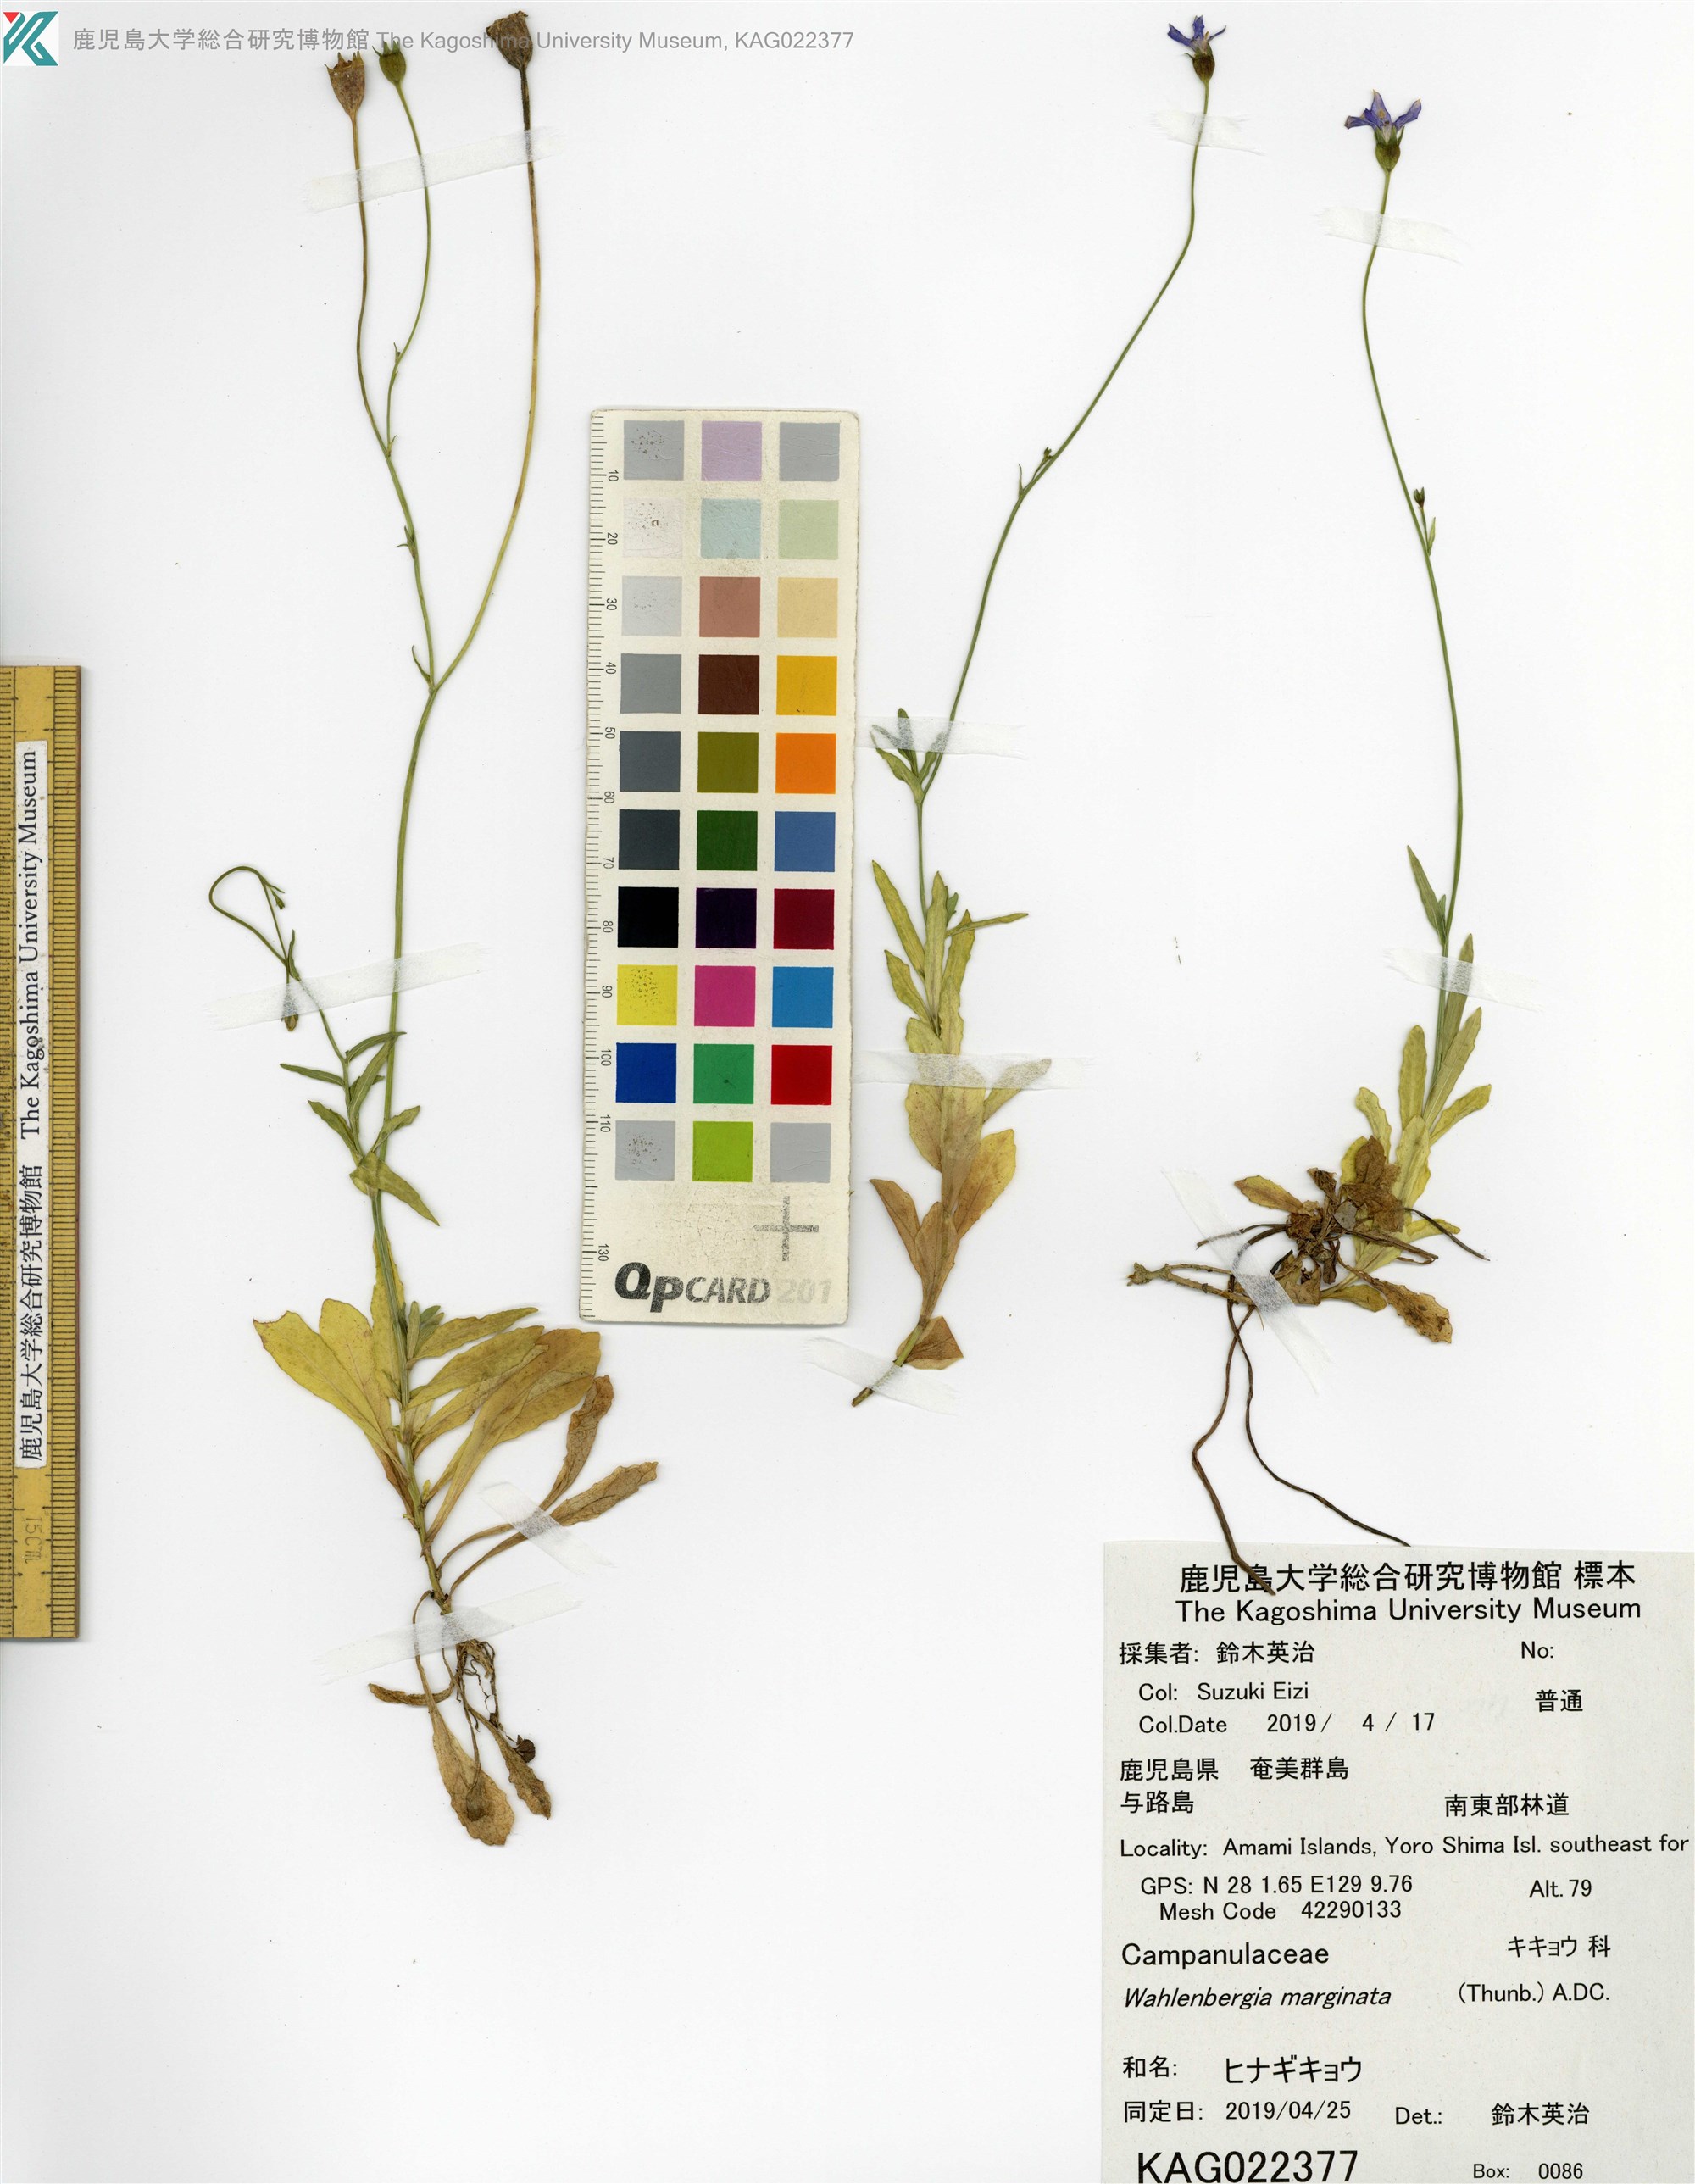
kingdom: Plantae
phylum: Tracheophyta
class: Magnoliopsida
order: Asterales
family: Campanulaceae
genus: Wahlenbergia
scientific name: Wahlenbergia marginata
